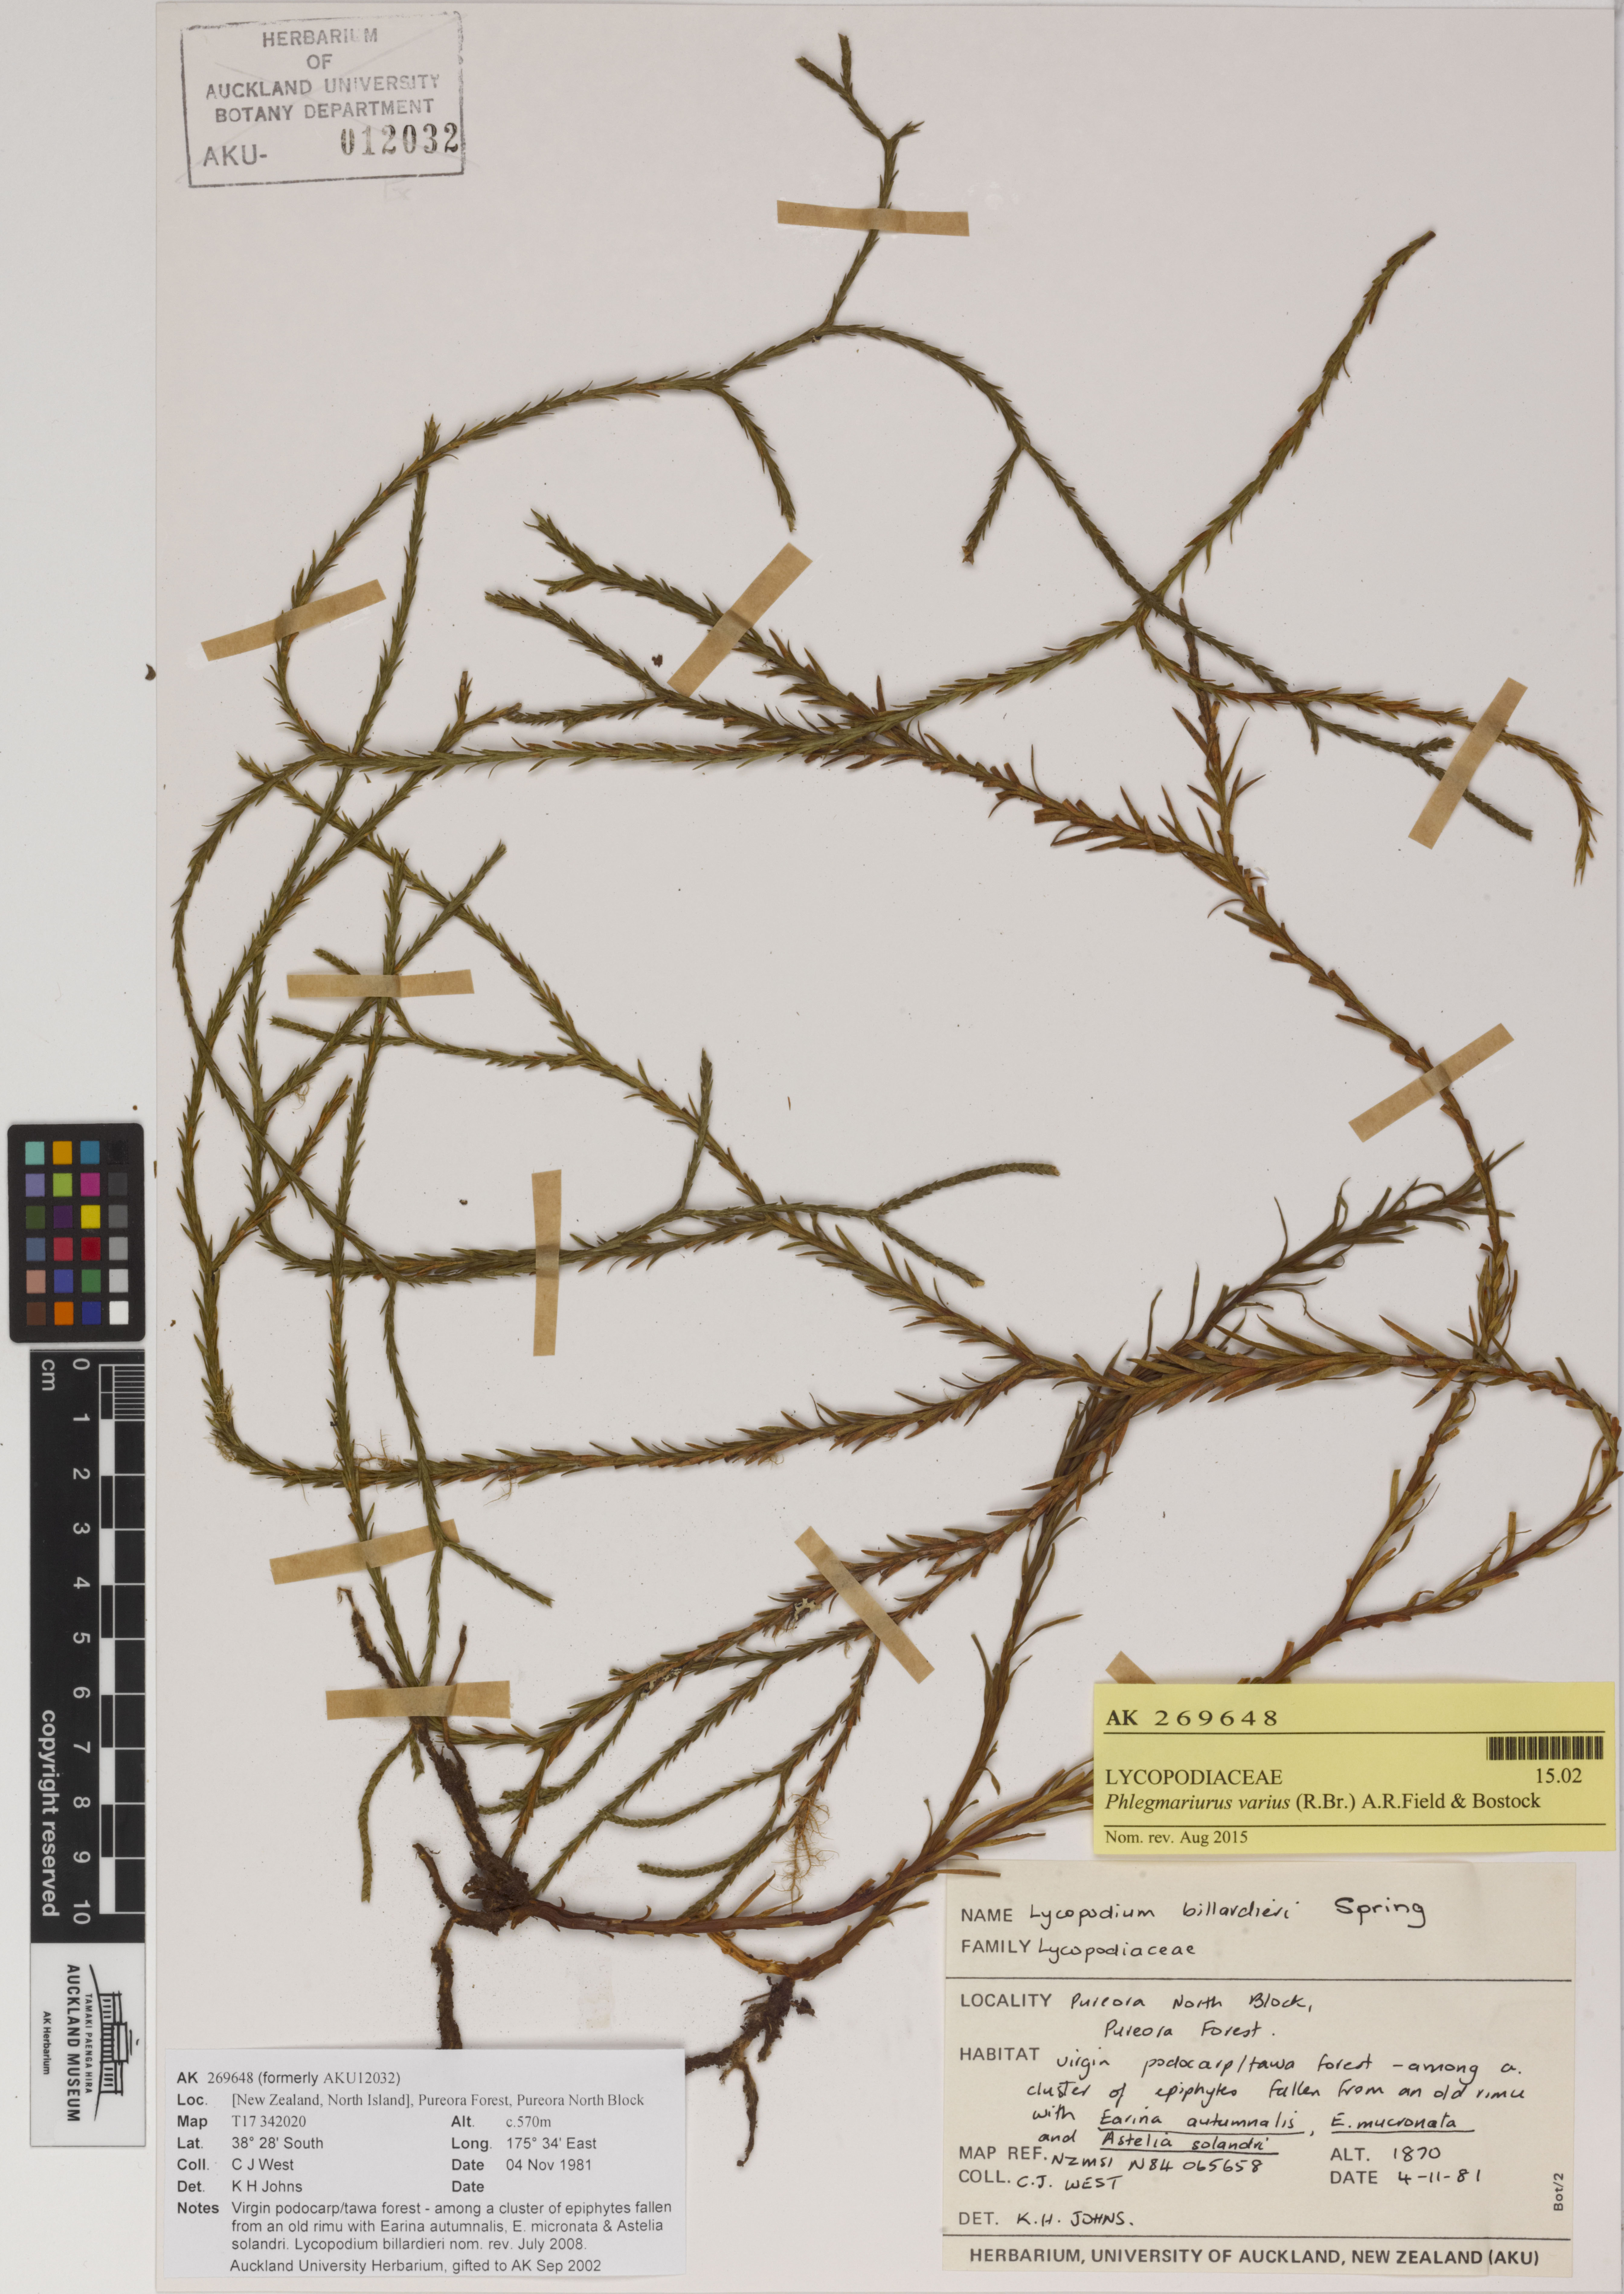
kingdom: Plantae
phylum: Tracheophyta
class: Lycopodiopsida
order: Lycopodiales
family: Lycopodiaceae
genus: Phlegmariurus
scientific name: Phlegmariurus billardierei
